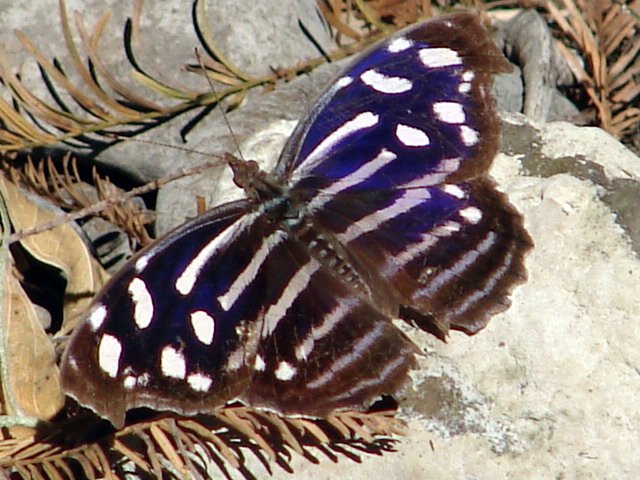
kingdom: Animalia
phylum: Arthropoda
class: Insecta
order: Lepidoptera
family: Nymphalidae
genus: Myscelia
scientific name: Myscelia cyaniris
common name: Whitened Bluewing
